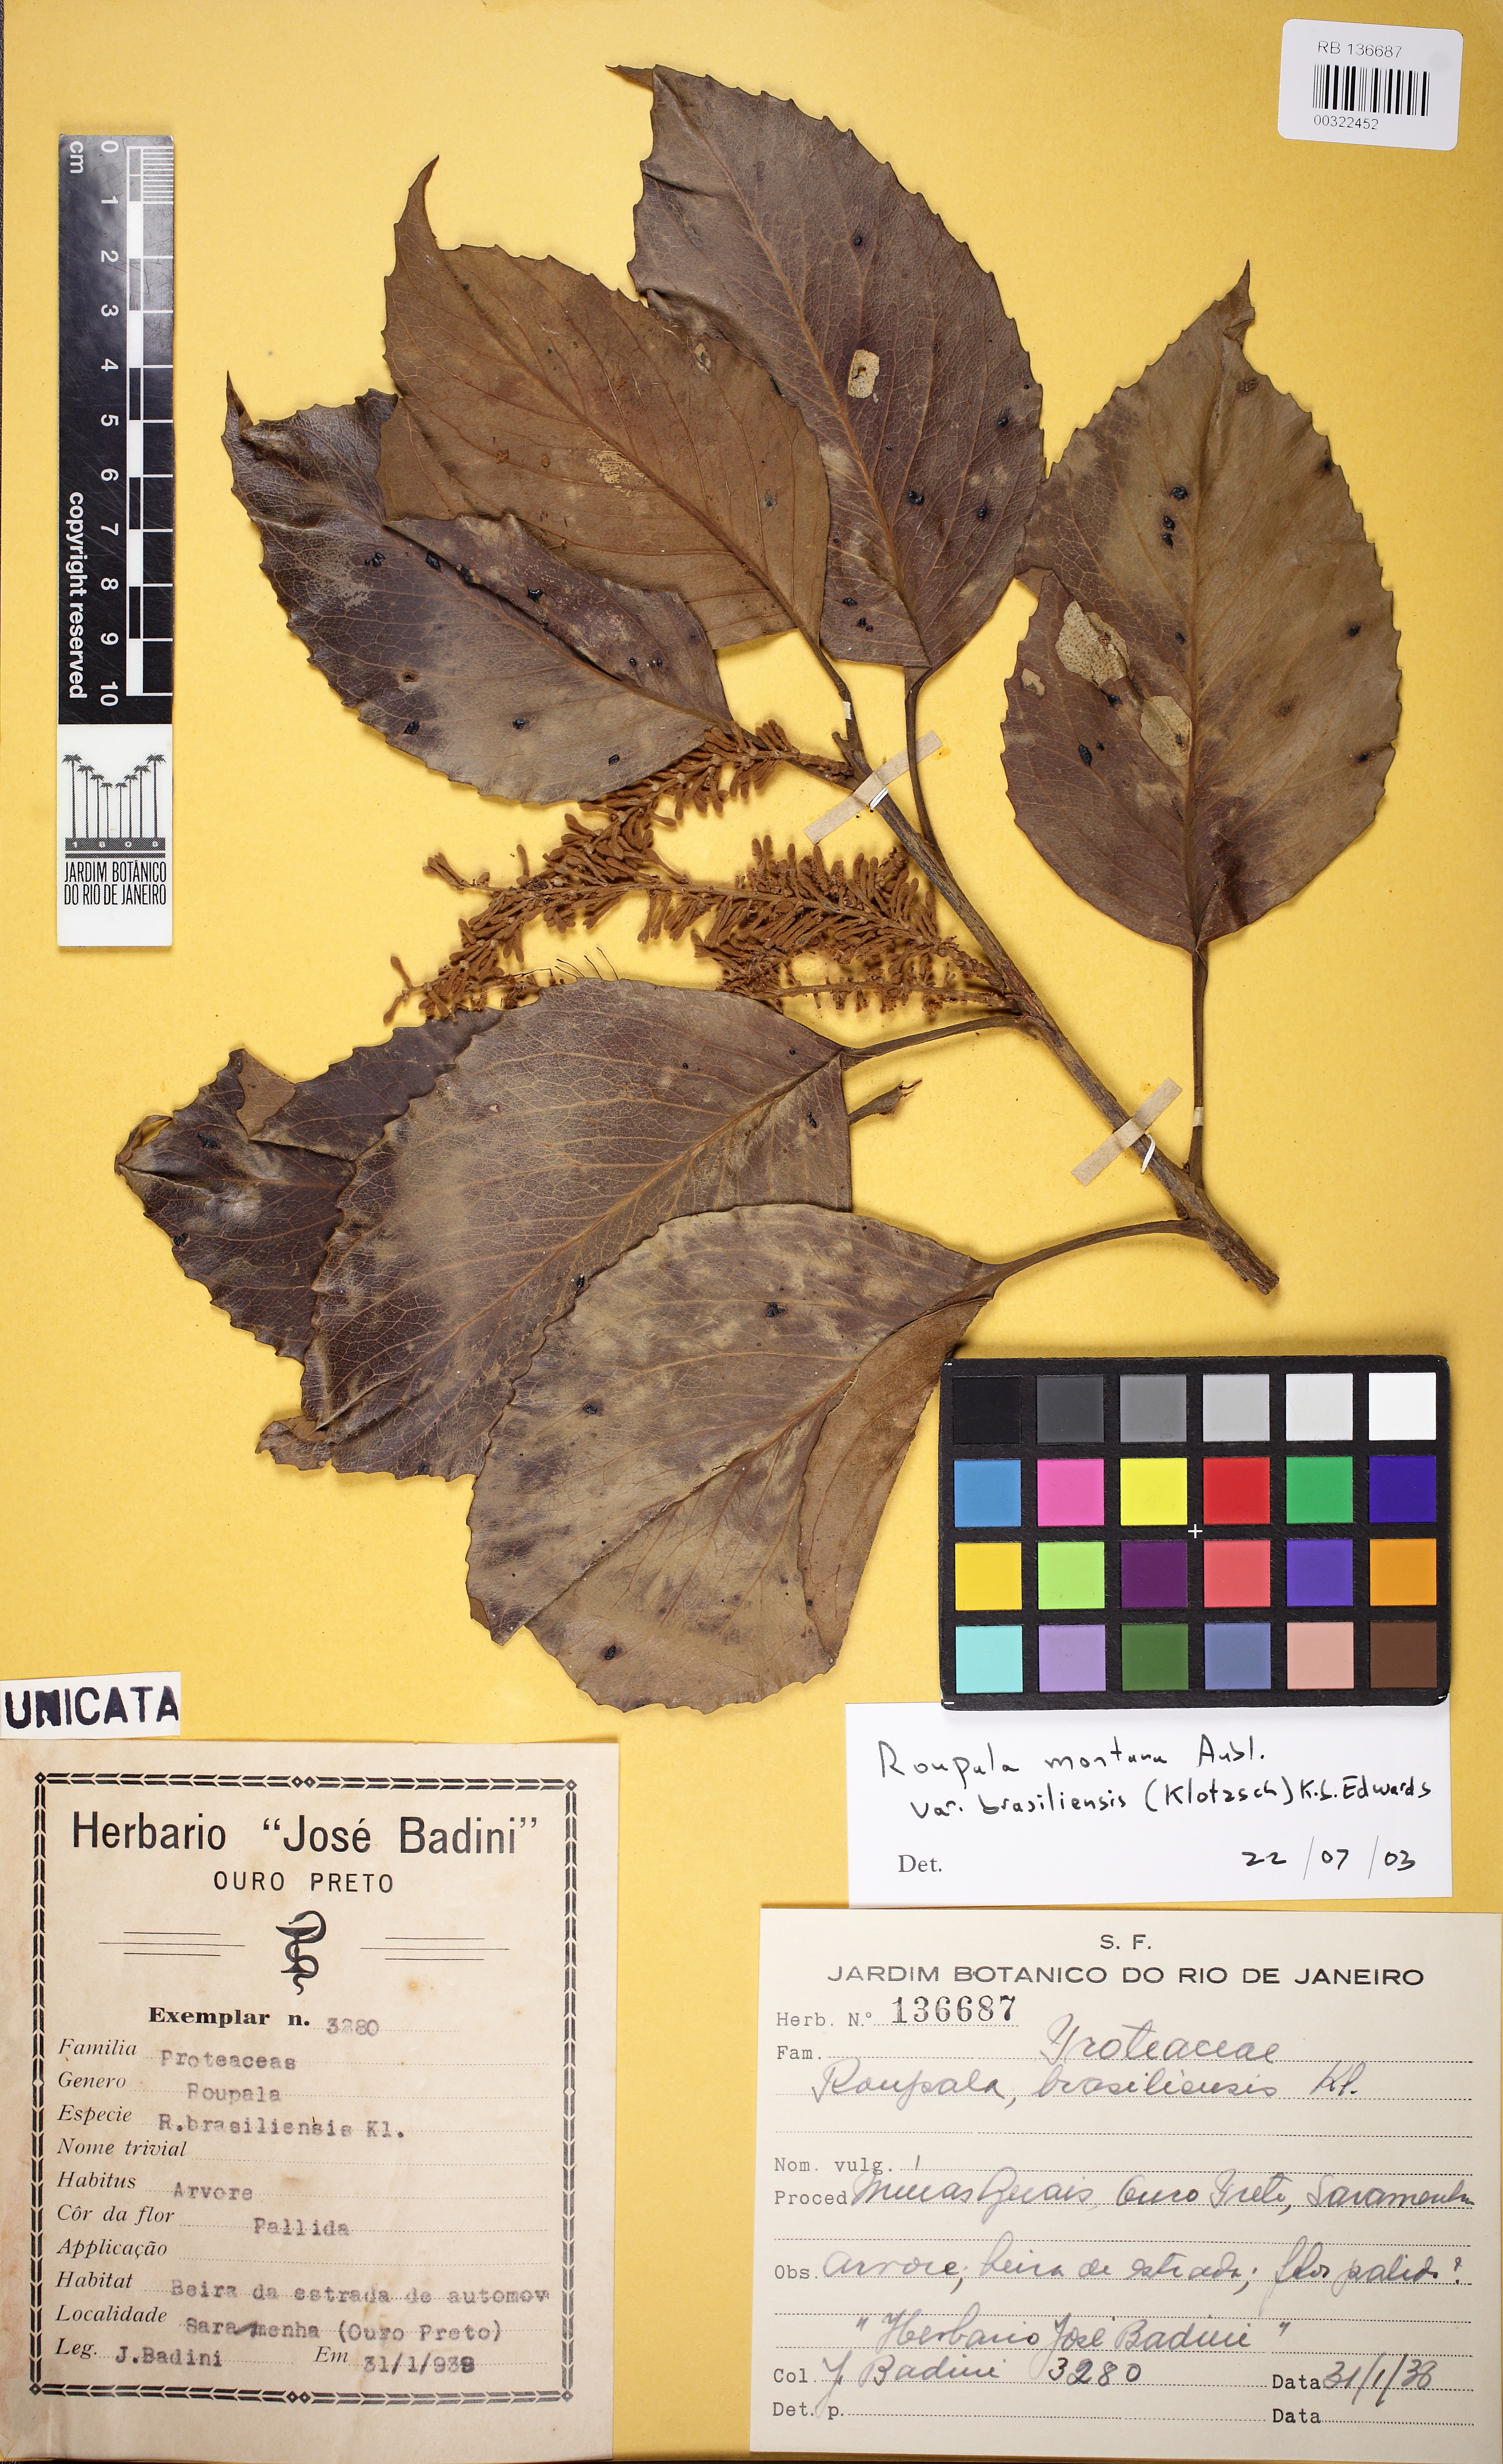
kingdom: Plantae
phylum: Tracheophyta
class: Magnoliopsida
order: Proteales
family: Proteaceae
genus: Roupala
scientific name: Roupala montana
